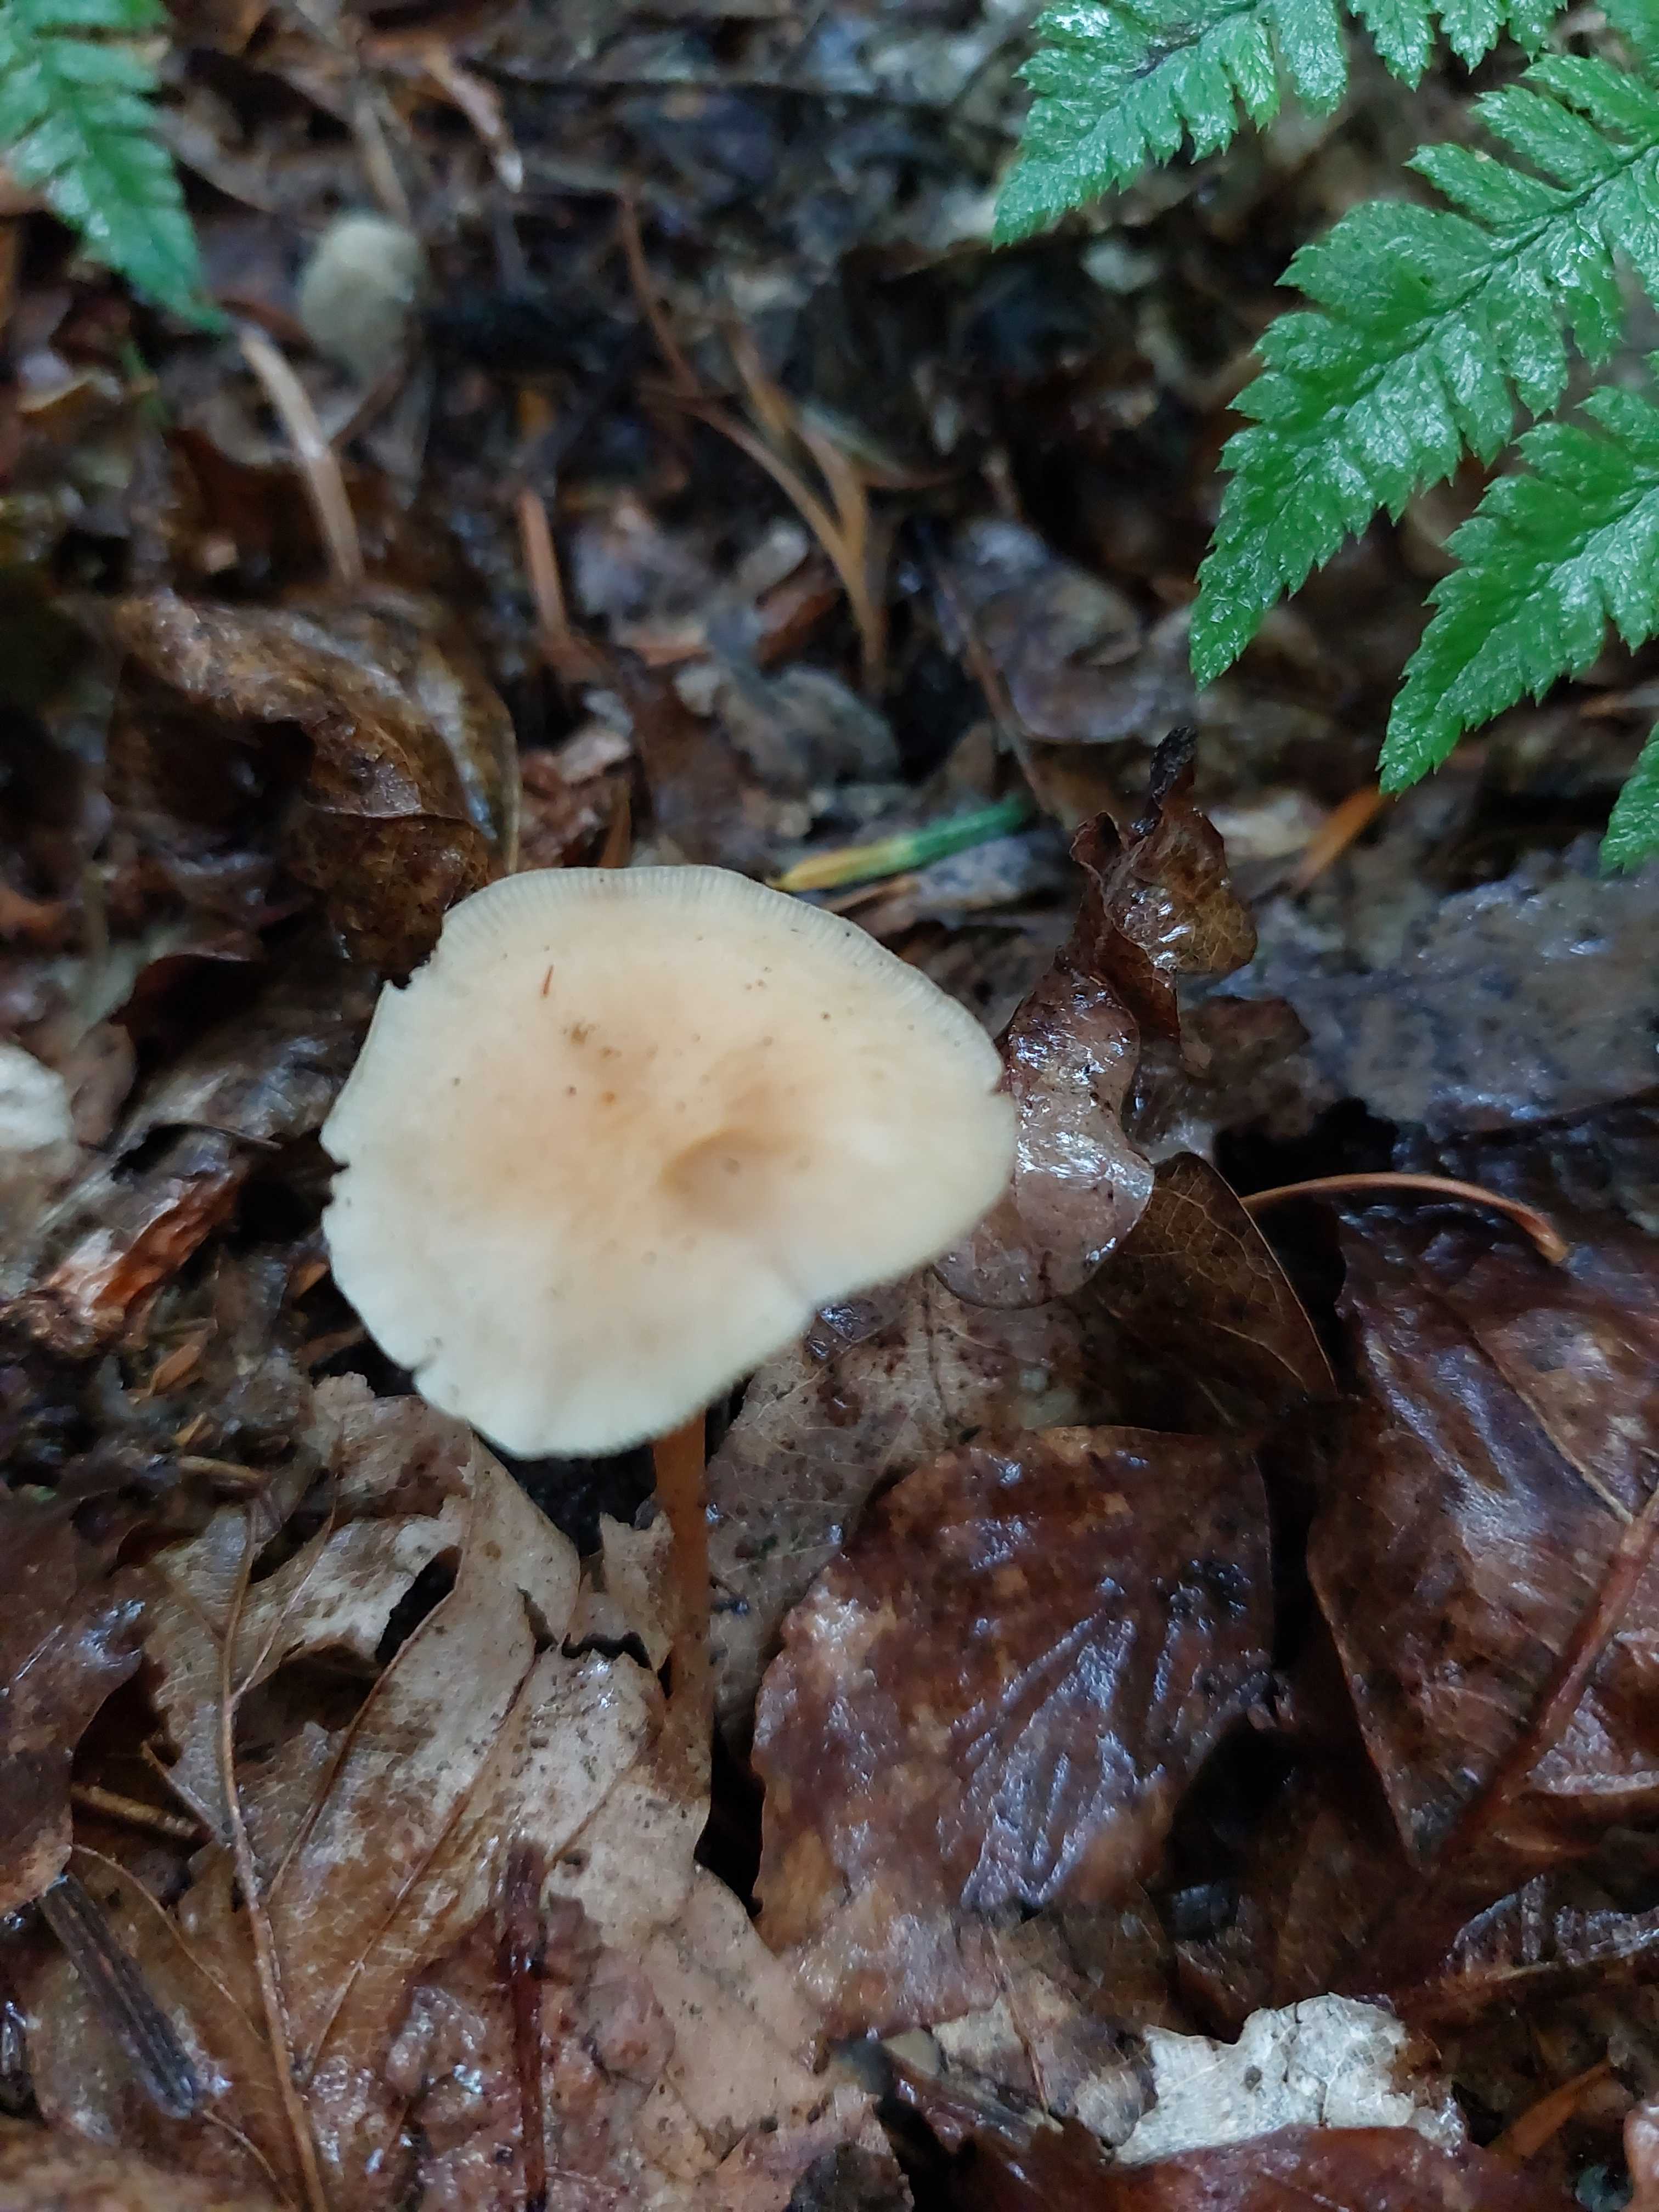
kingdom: Fungi
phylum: Basidiomycota
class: Agaricomycetes
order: Agaricales
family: Omphalotaceae
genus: Gymnopus
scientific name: Gymnopus dryophilus
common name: løv-fladhat
